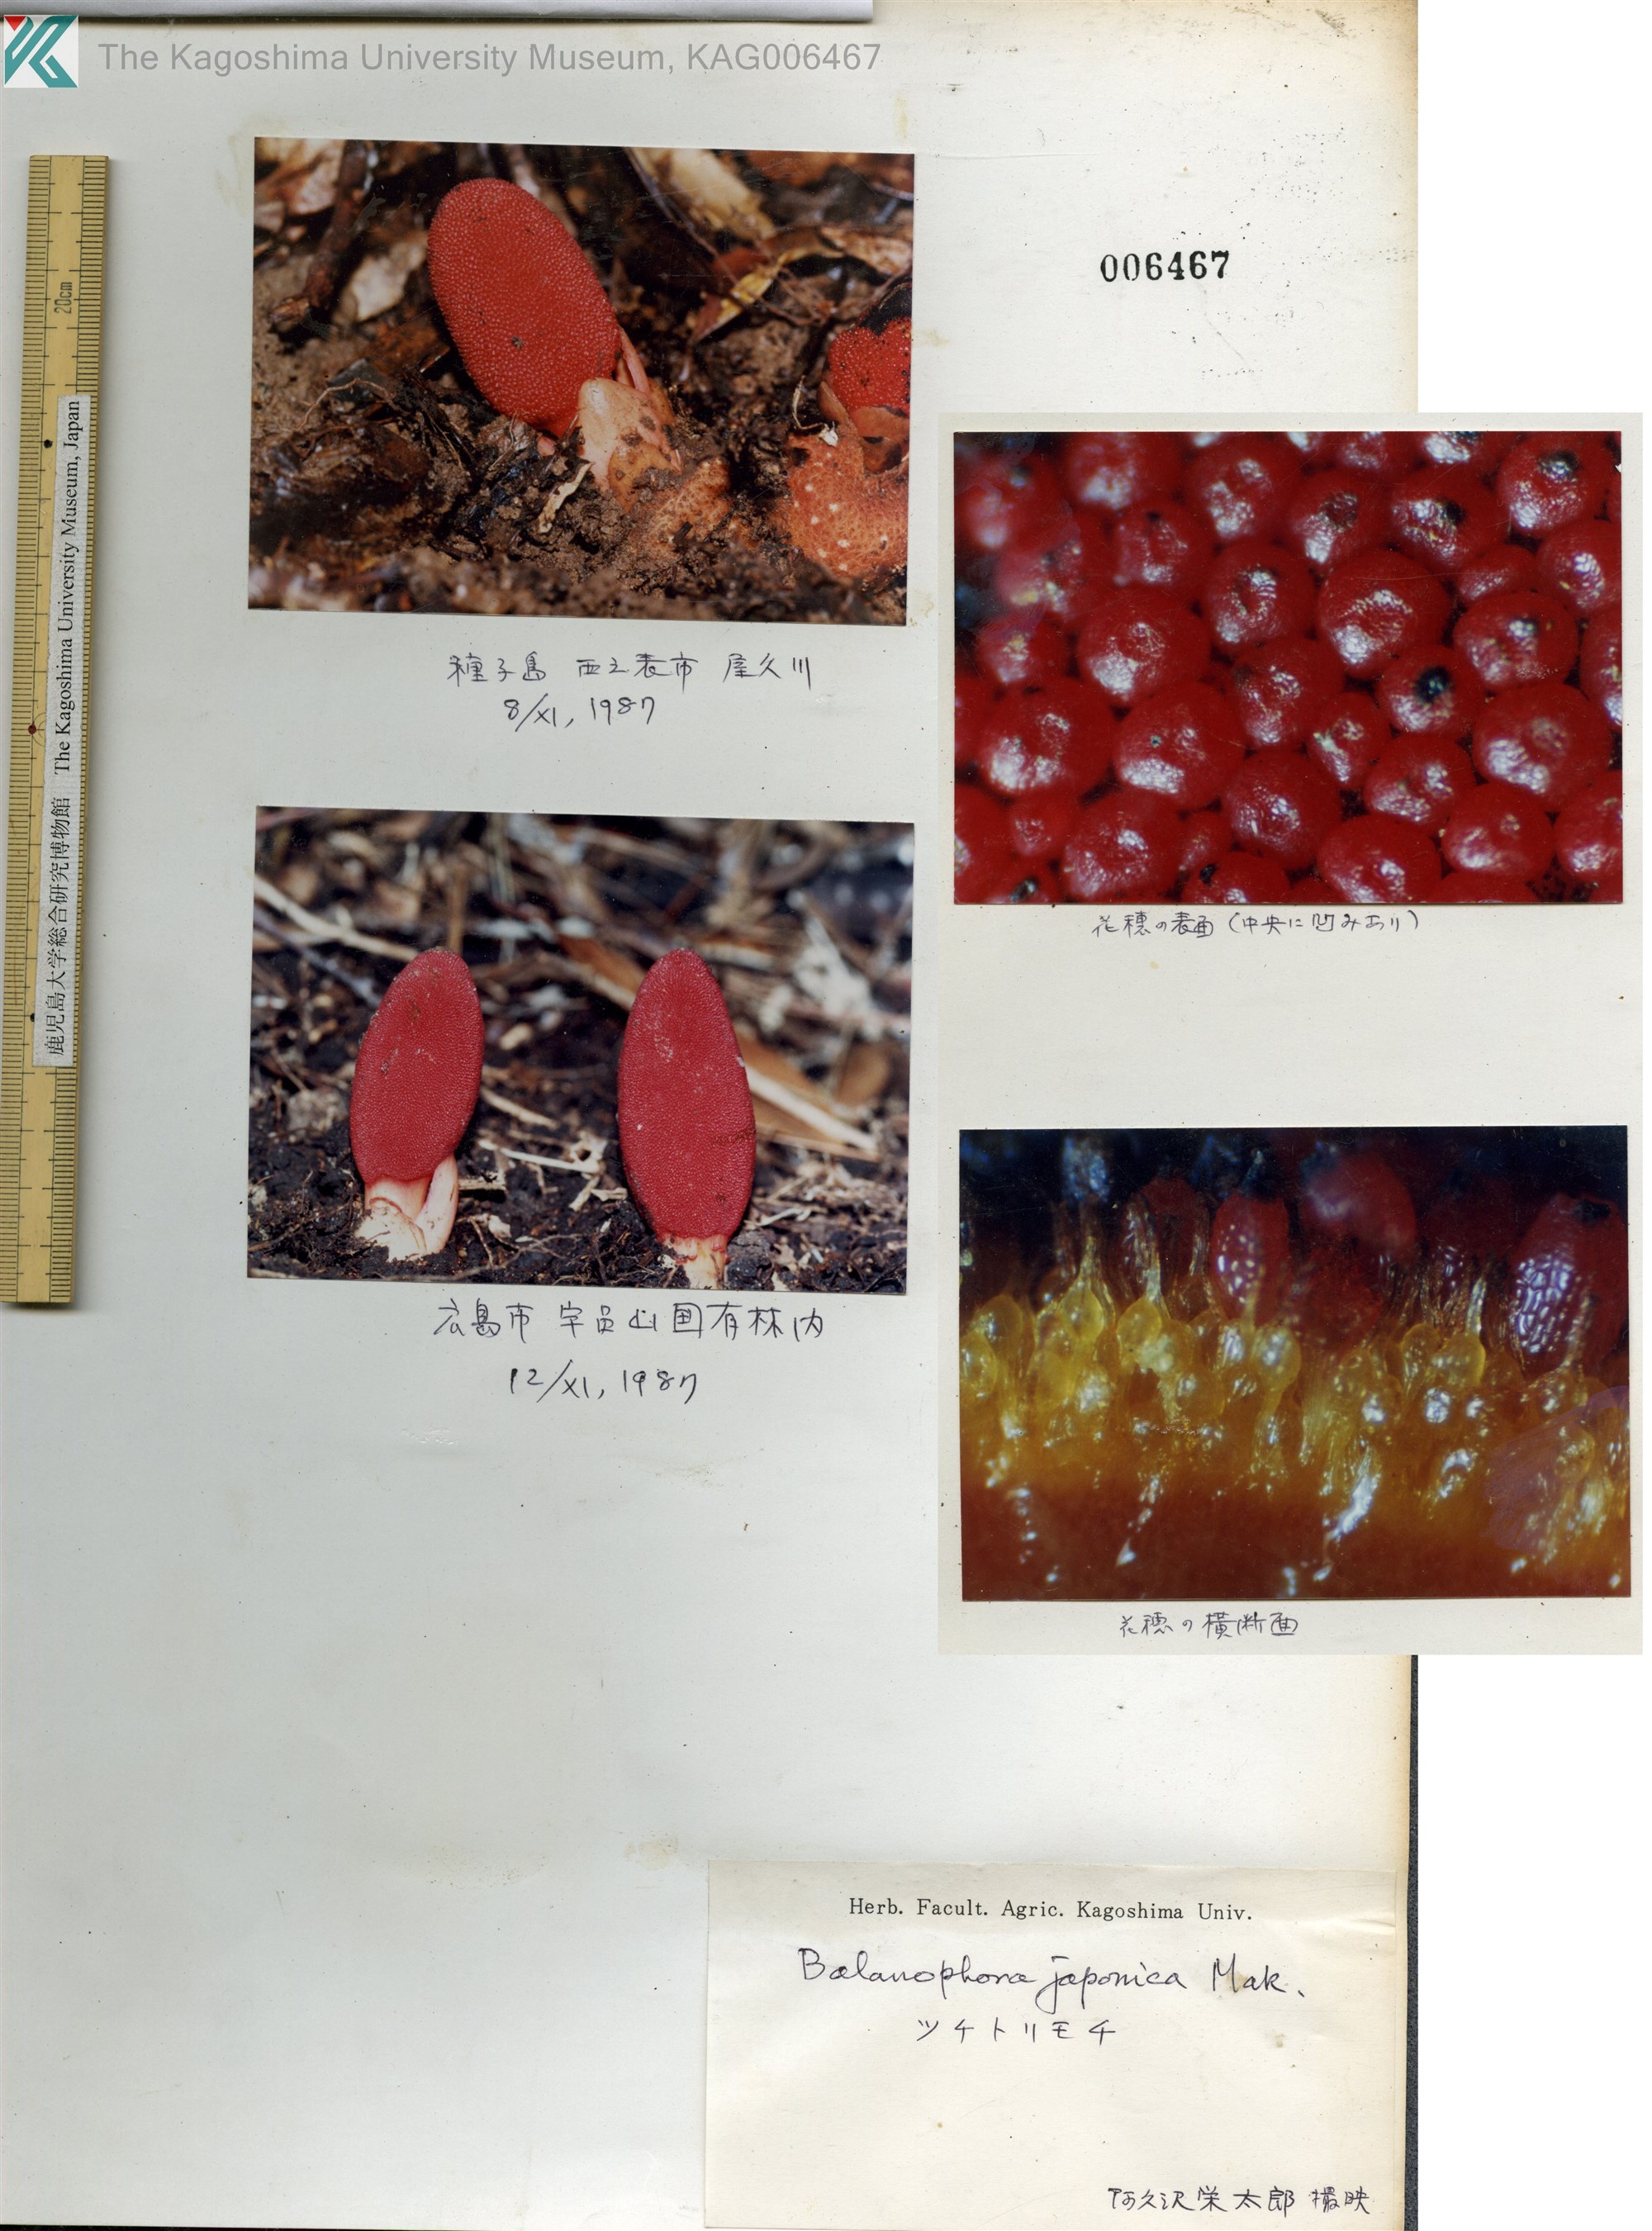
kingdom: Plantae
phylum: Tracheophyta
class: Magnoliopsida
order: Santalales
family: Balanophoraceae
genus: Balanophora
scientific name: Balanophora japonica
